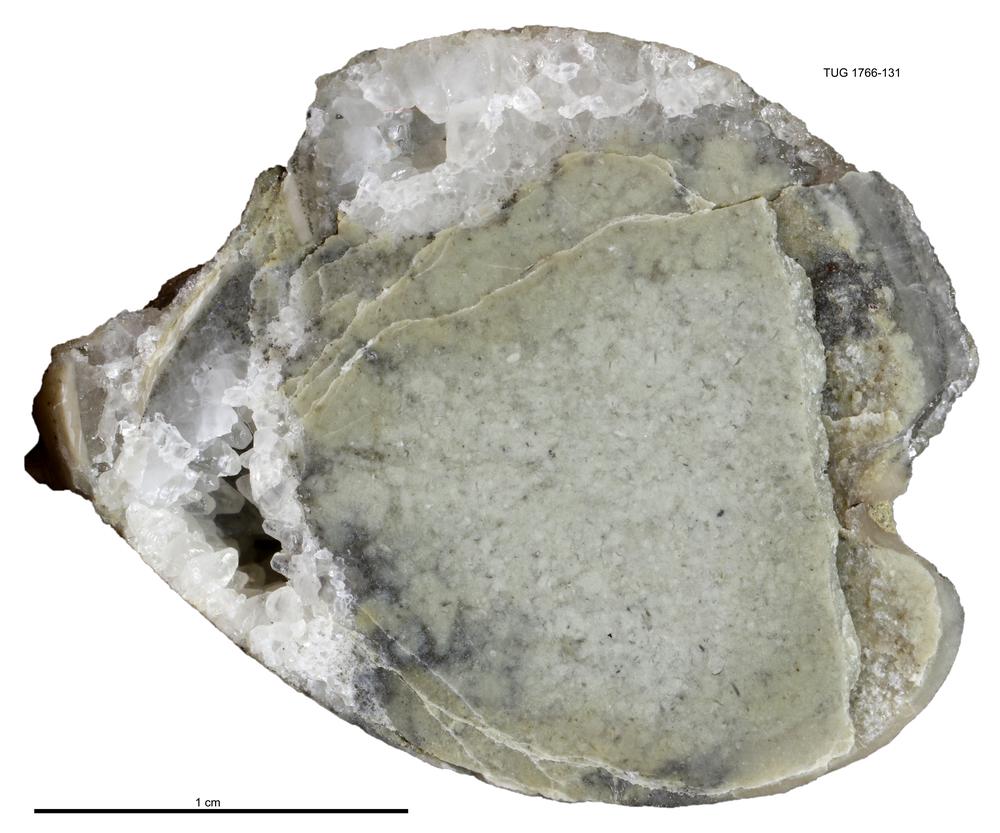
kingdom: Animalia
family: Coprulidae
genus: Coprulus
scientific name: Coprulus
